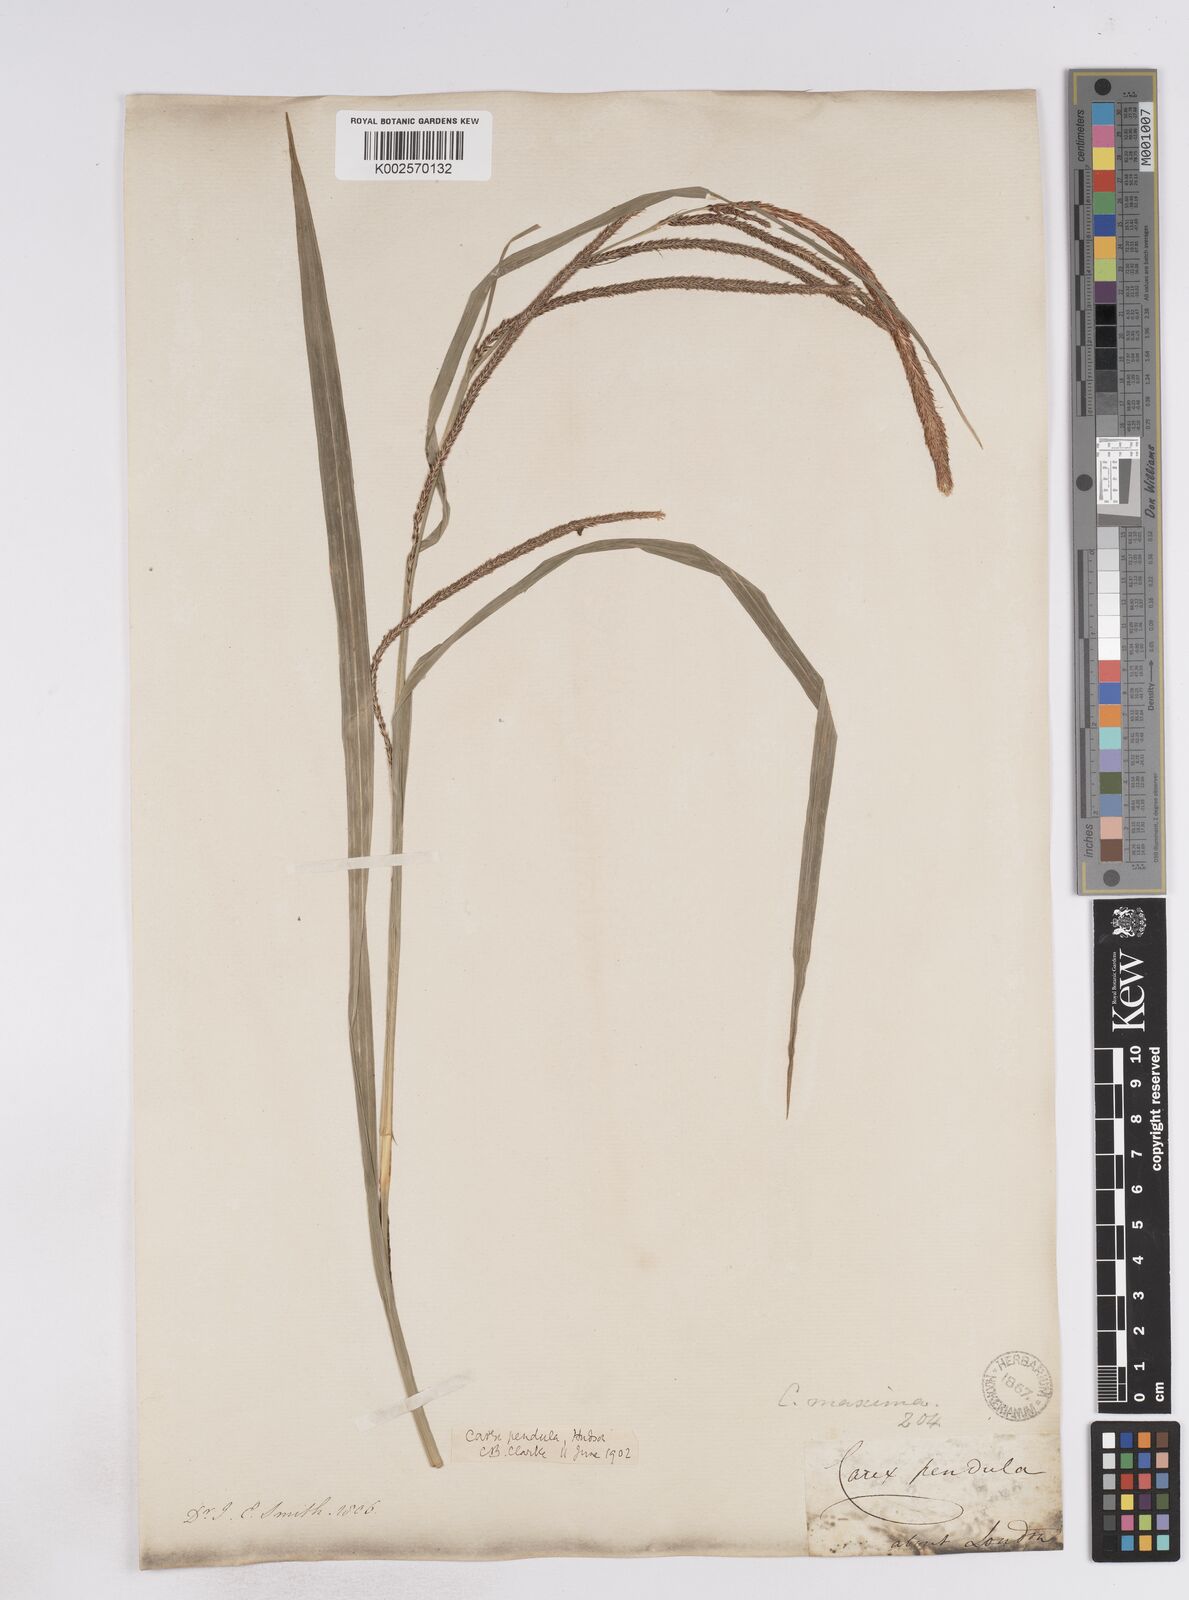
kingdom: Plantae
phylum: Tracheophyta
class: Liliopsida
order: Poales
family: Cyperaceae
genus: Carex
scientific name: Carex pendula
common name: Pendulous sedge
